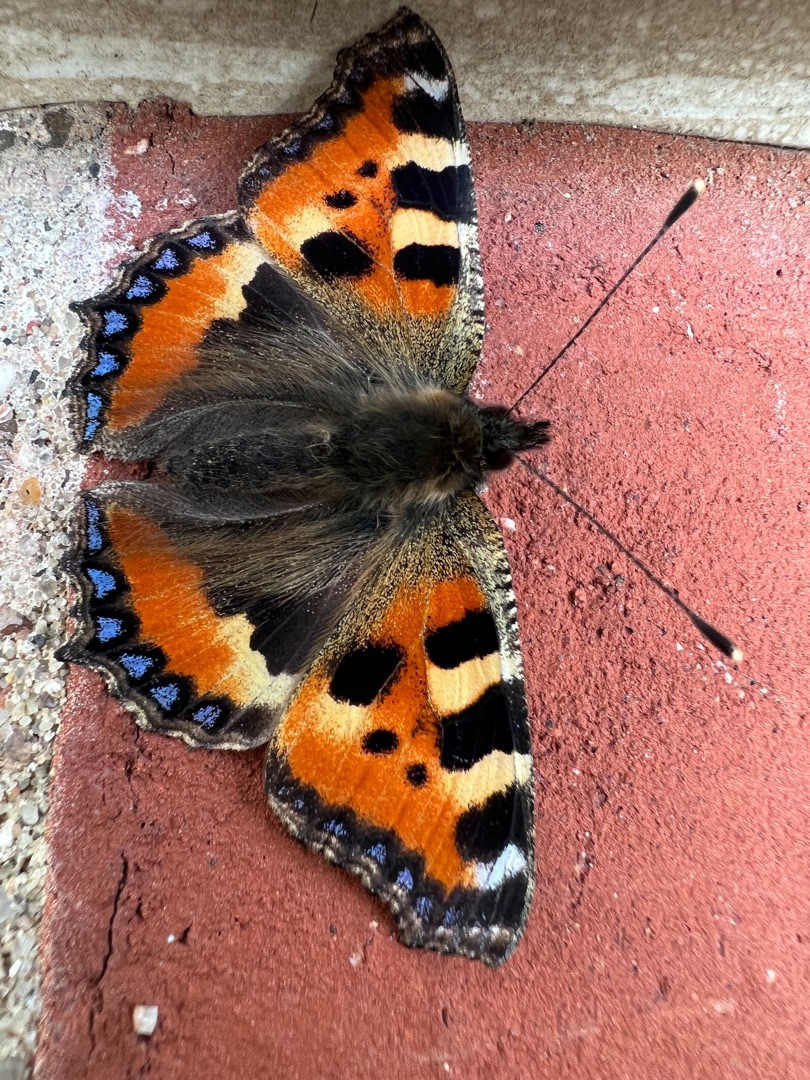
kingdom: Animalia
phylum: Arthropoda
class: Insecta
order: Lepidoptera
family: Nymphalidae
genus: Aglais
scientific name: Aglais urticae
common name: Nældens takvinge
